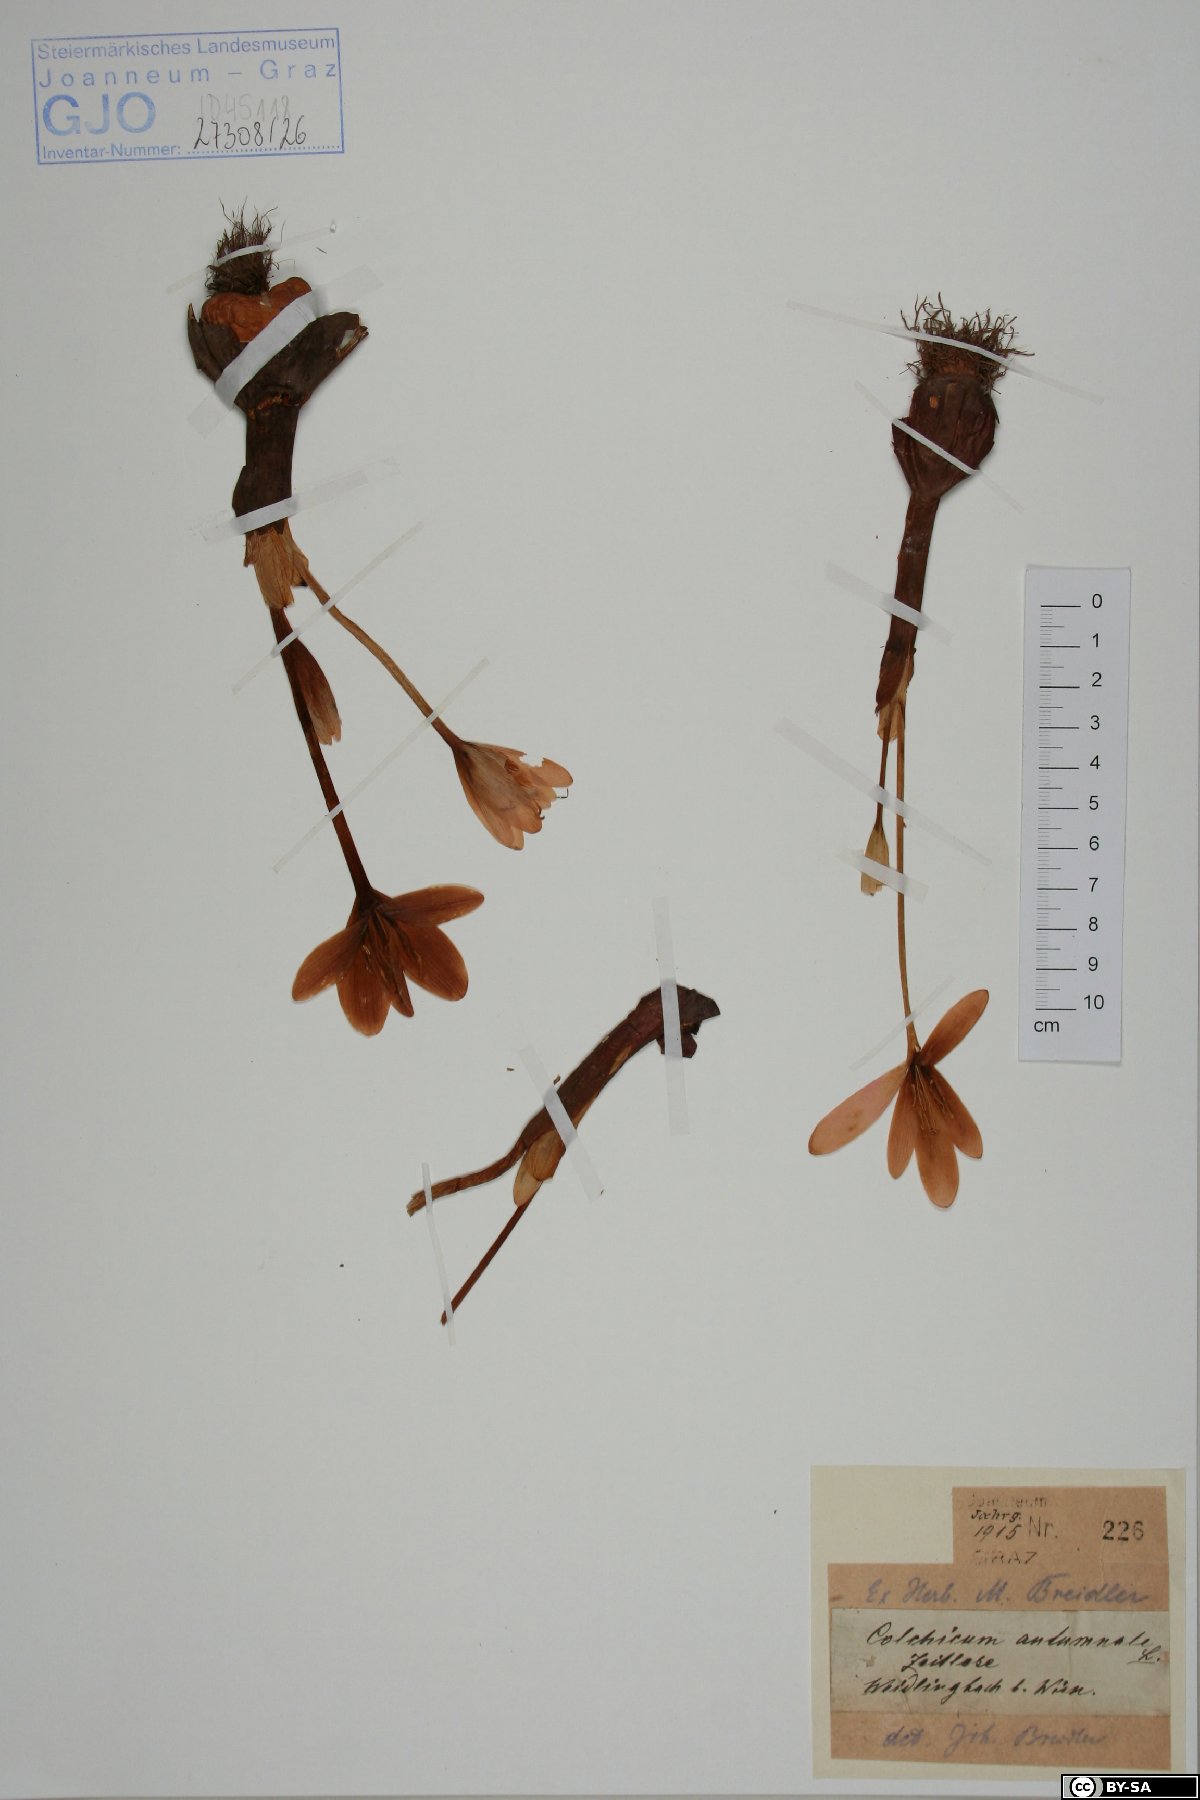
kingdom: Plantae
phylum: Tracheophyta
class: Liliopsida
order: Liliales
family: Colchicaceae
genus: Colchicum
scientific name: Colchicum autumnale
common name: Autumn crocus
